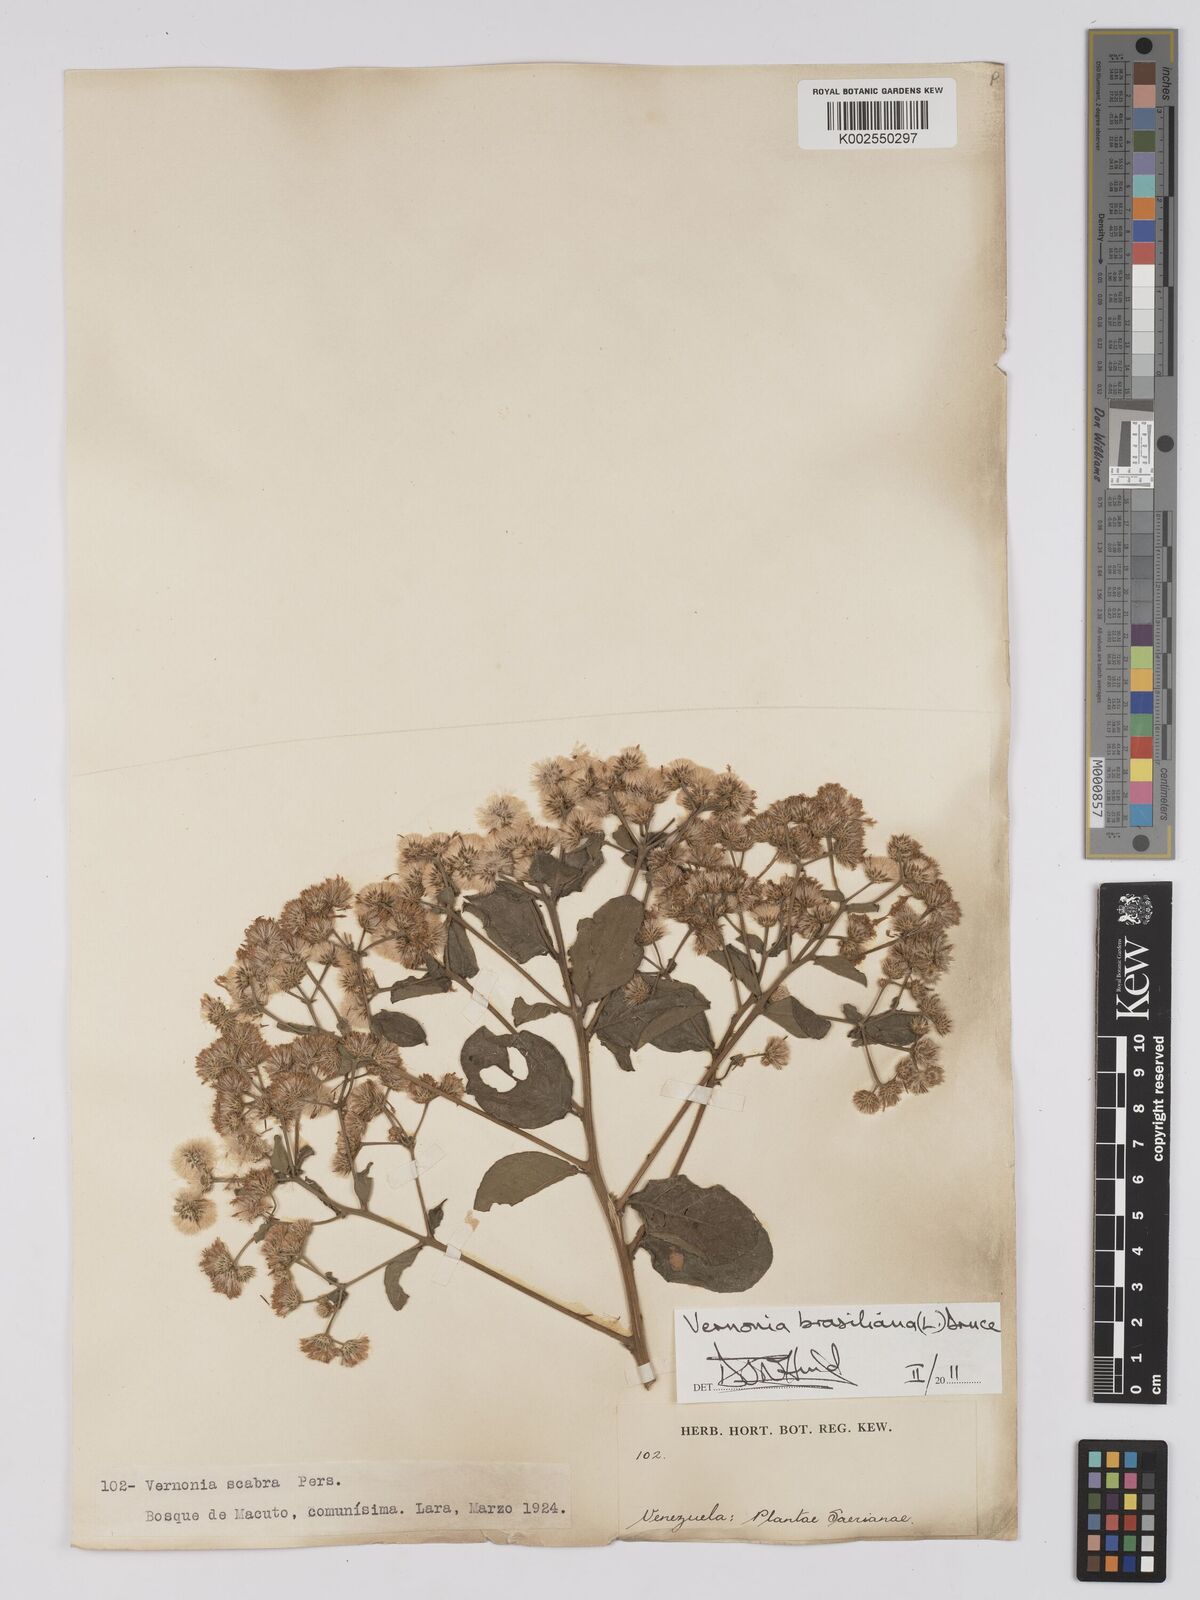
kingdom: Plantae
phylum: Tracheophyta
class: Magnoliopsida
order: Asterales
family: Asteraceae
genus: Vernonanthura
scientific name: Vernonanthura brasiliana
